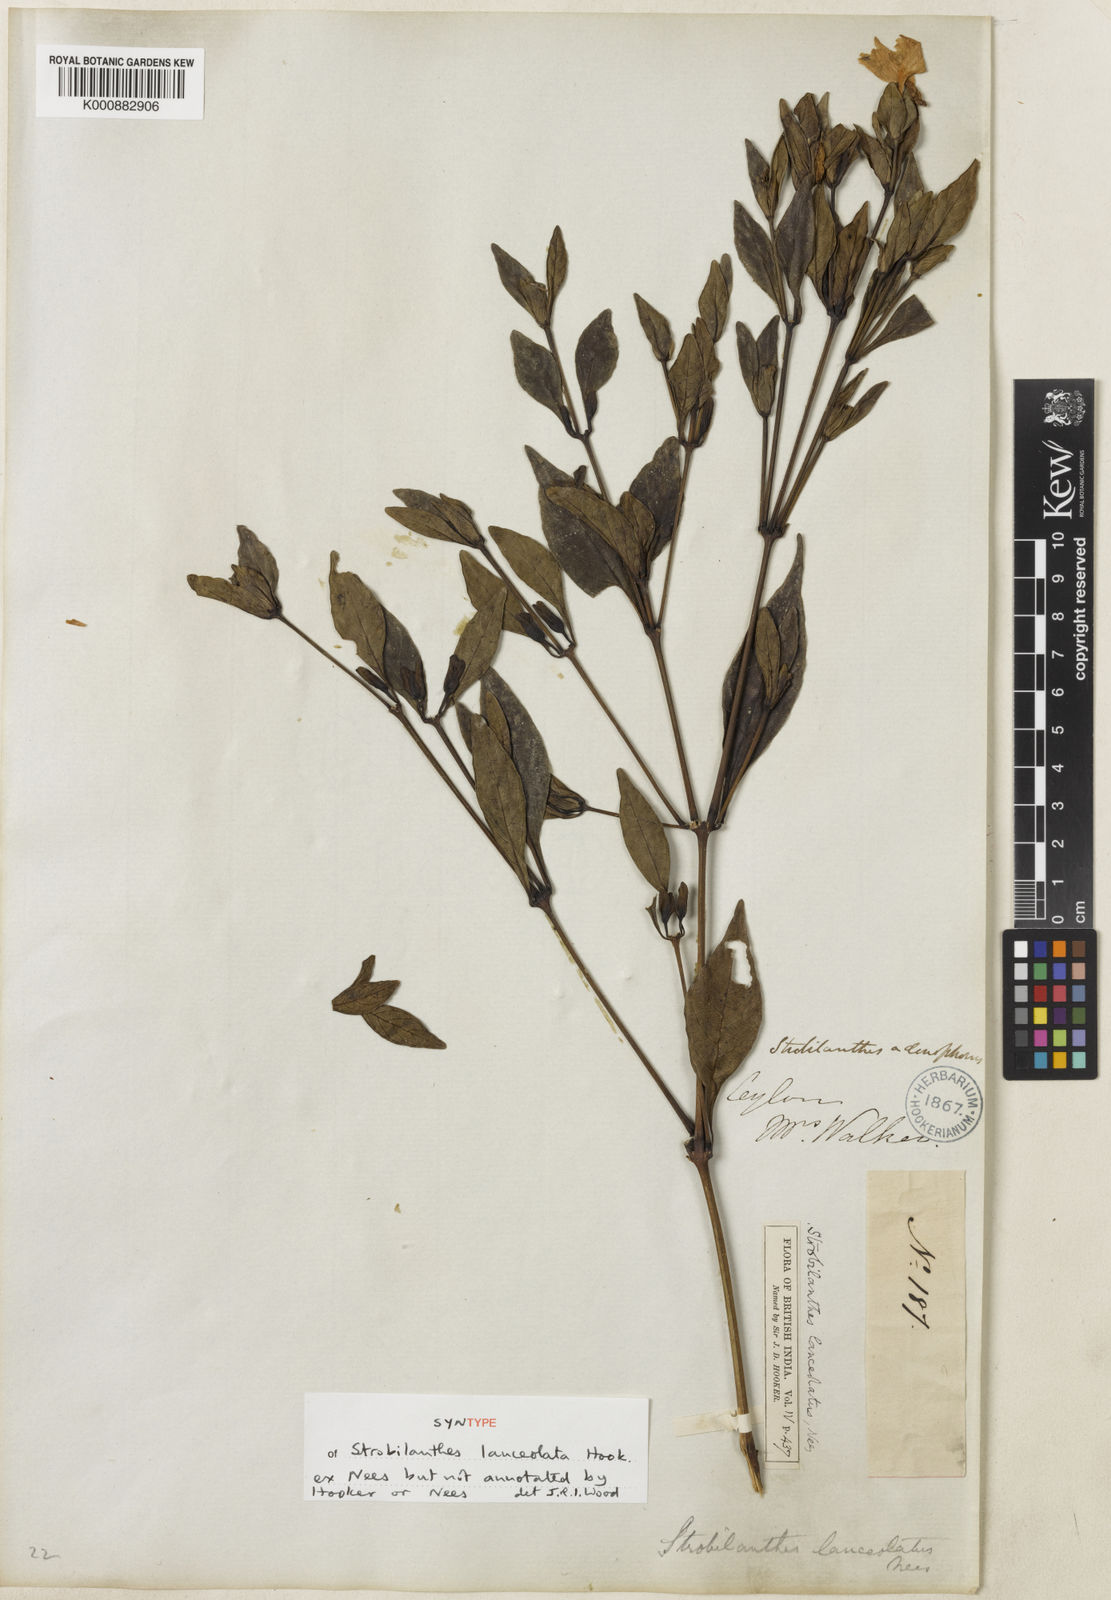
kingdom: Plantae
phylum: Tracheophyta
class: Magnoliopsida
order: Lamiales
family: Acanthaceae
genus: Strobilanthes
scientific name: Strobilanthes adenophora
